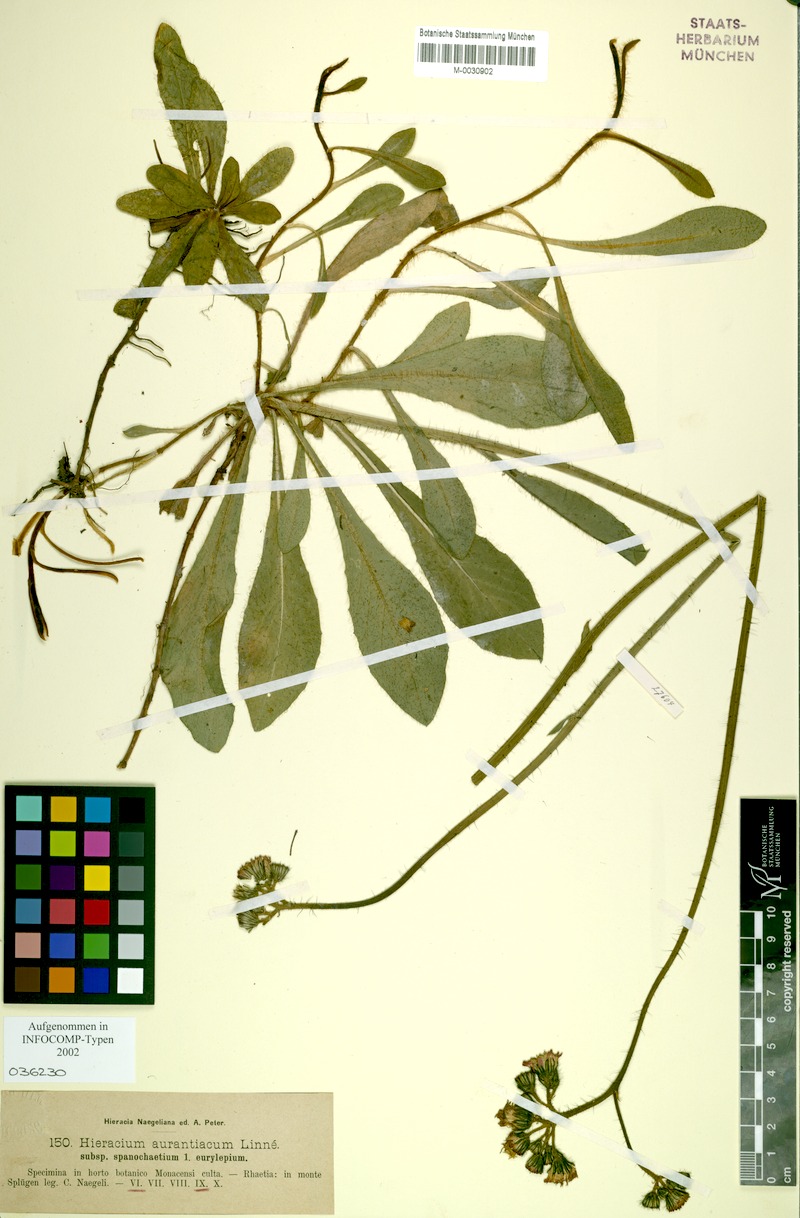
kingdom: Plantae
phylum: Tracheophyta
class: Magnoliopsida
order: Asterales
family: Asteraceae
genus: Pilosella
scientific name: Pilosella aurantiaca
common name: Fox-and-cubs
